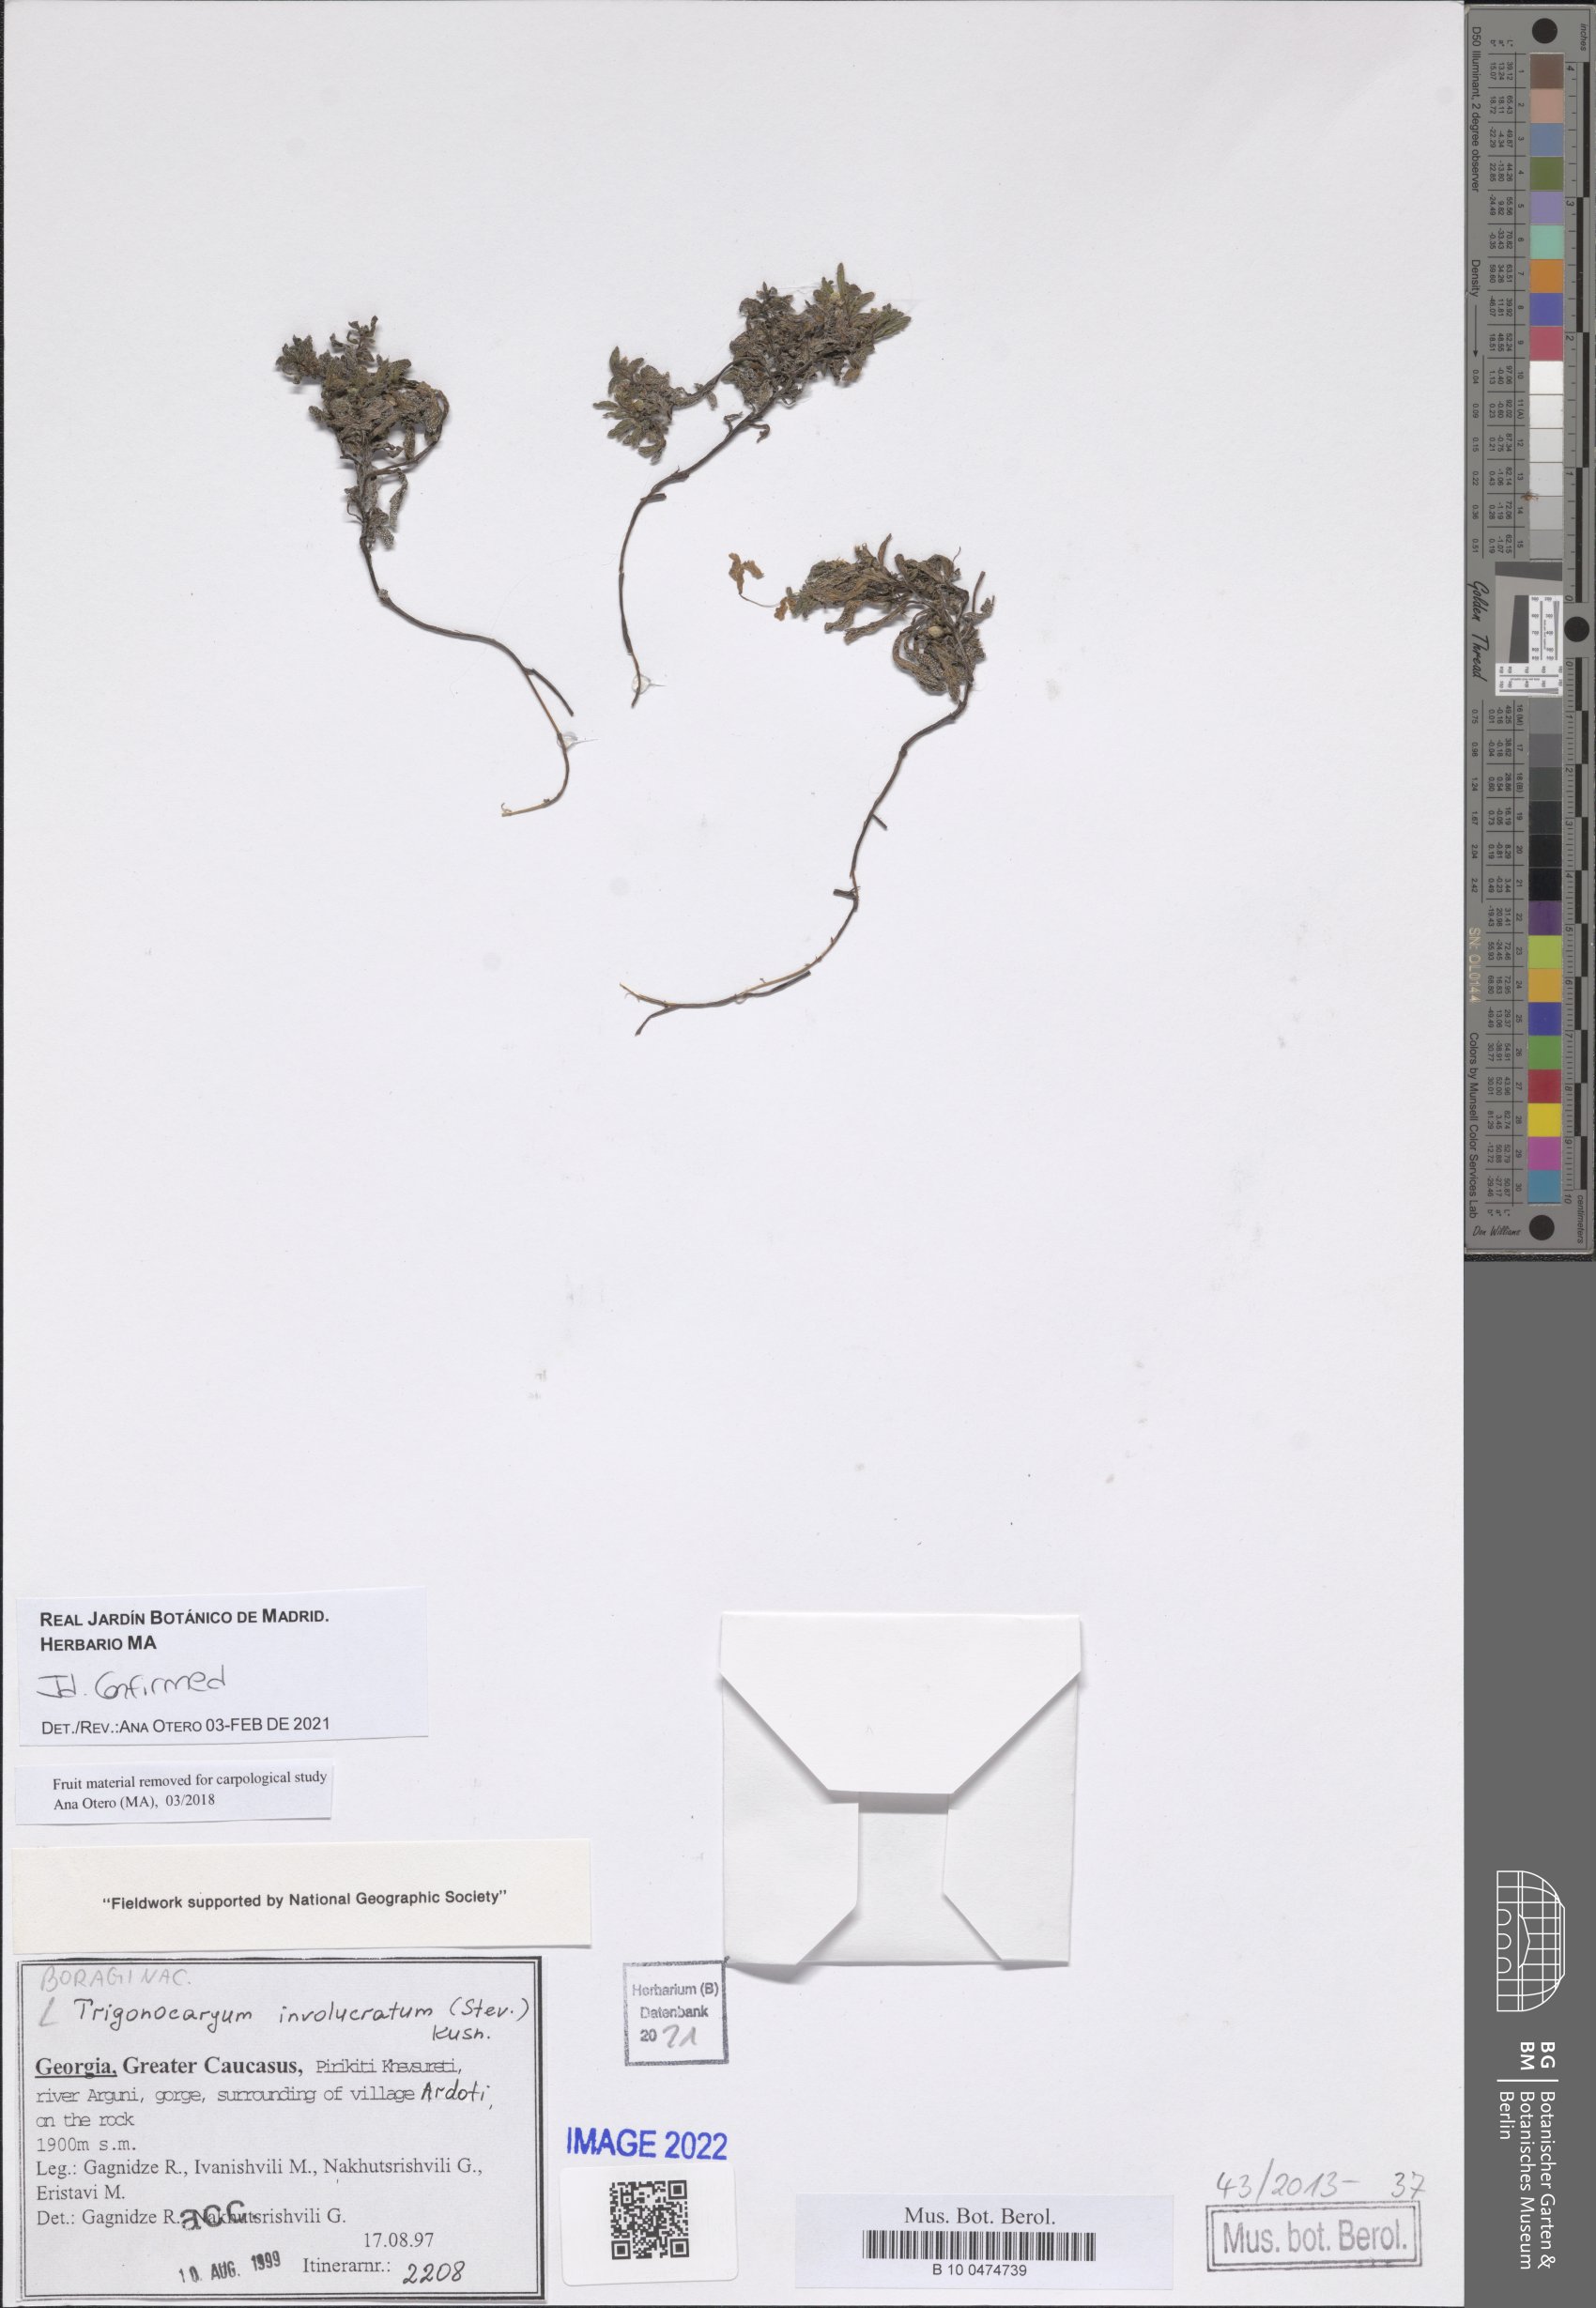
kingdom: Plantae
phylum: Tracheophyta
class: Magnoliopsida
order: Boraginales
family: Boraginaceae
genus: Myosotis
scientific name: Myosotis involucrata
